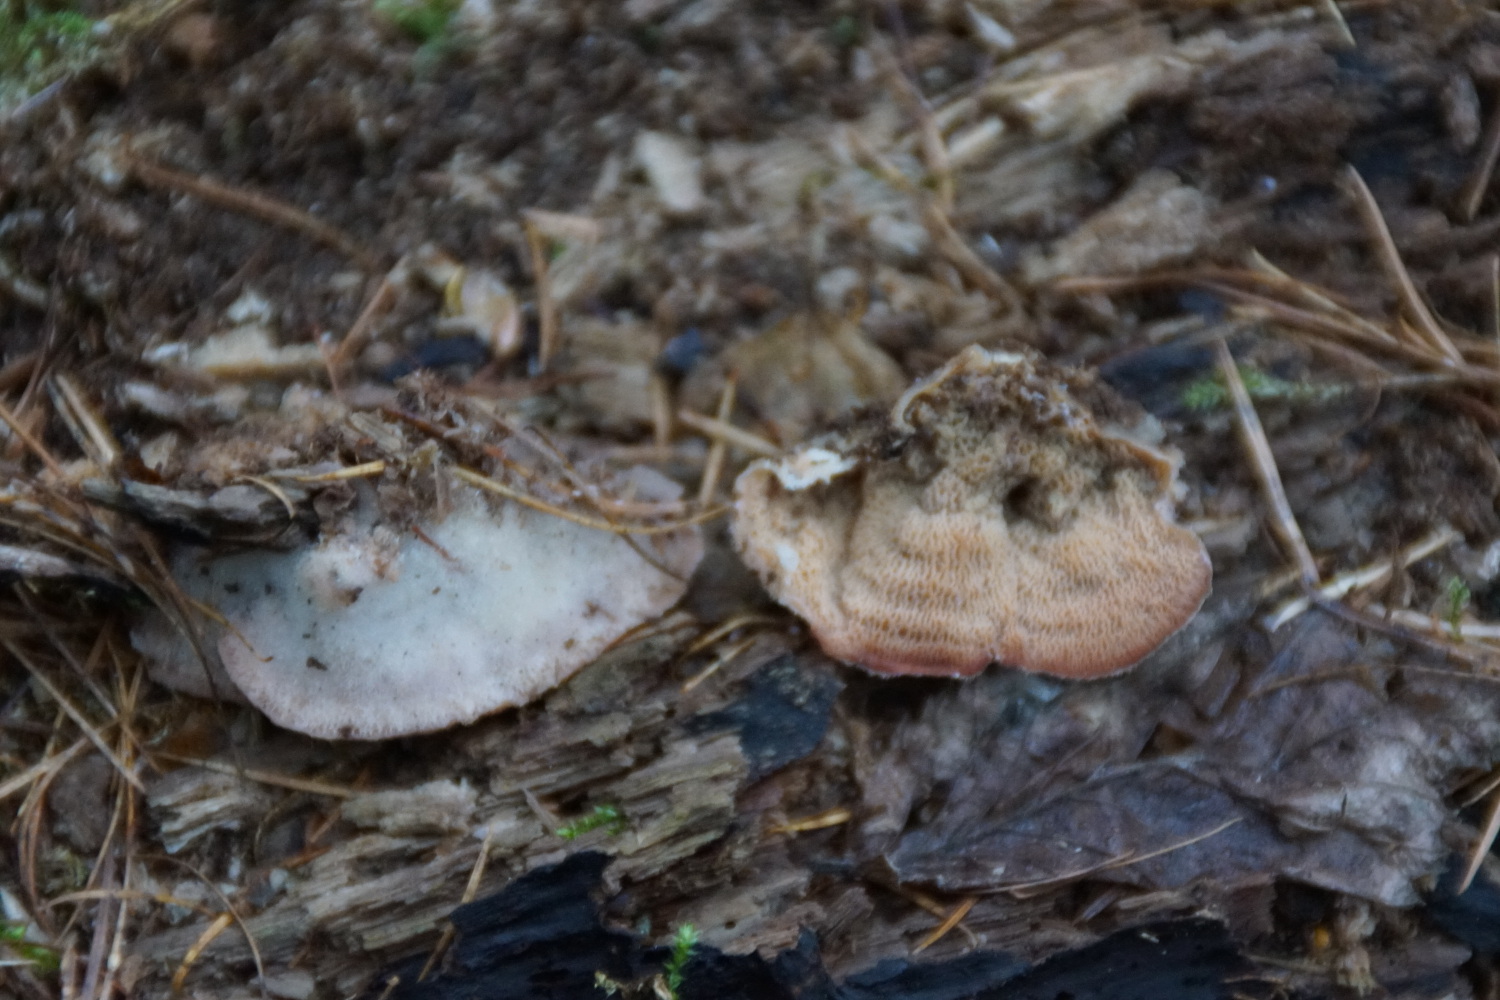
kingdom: Fungi
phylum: Basidiomycota
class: Agaricomycetes
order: Polyporales
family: Meruliaceae
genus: Phlebia
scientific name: Phlebia tremellosa
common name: bævrende åresvamp
